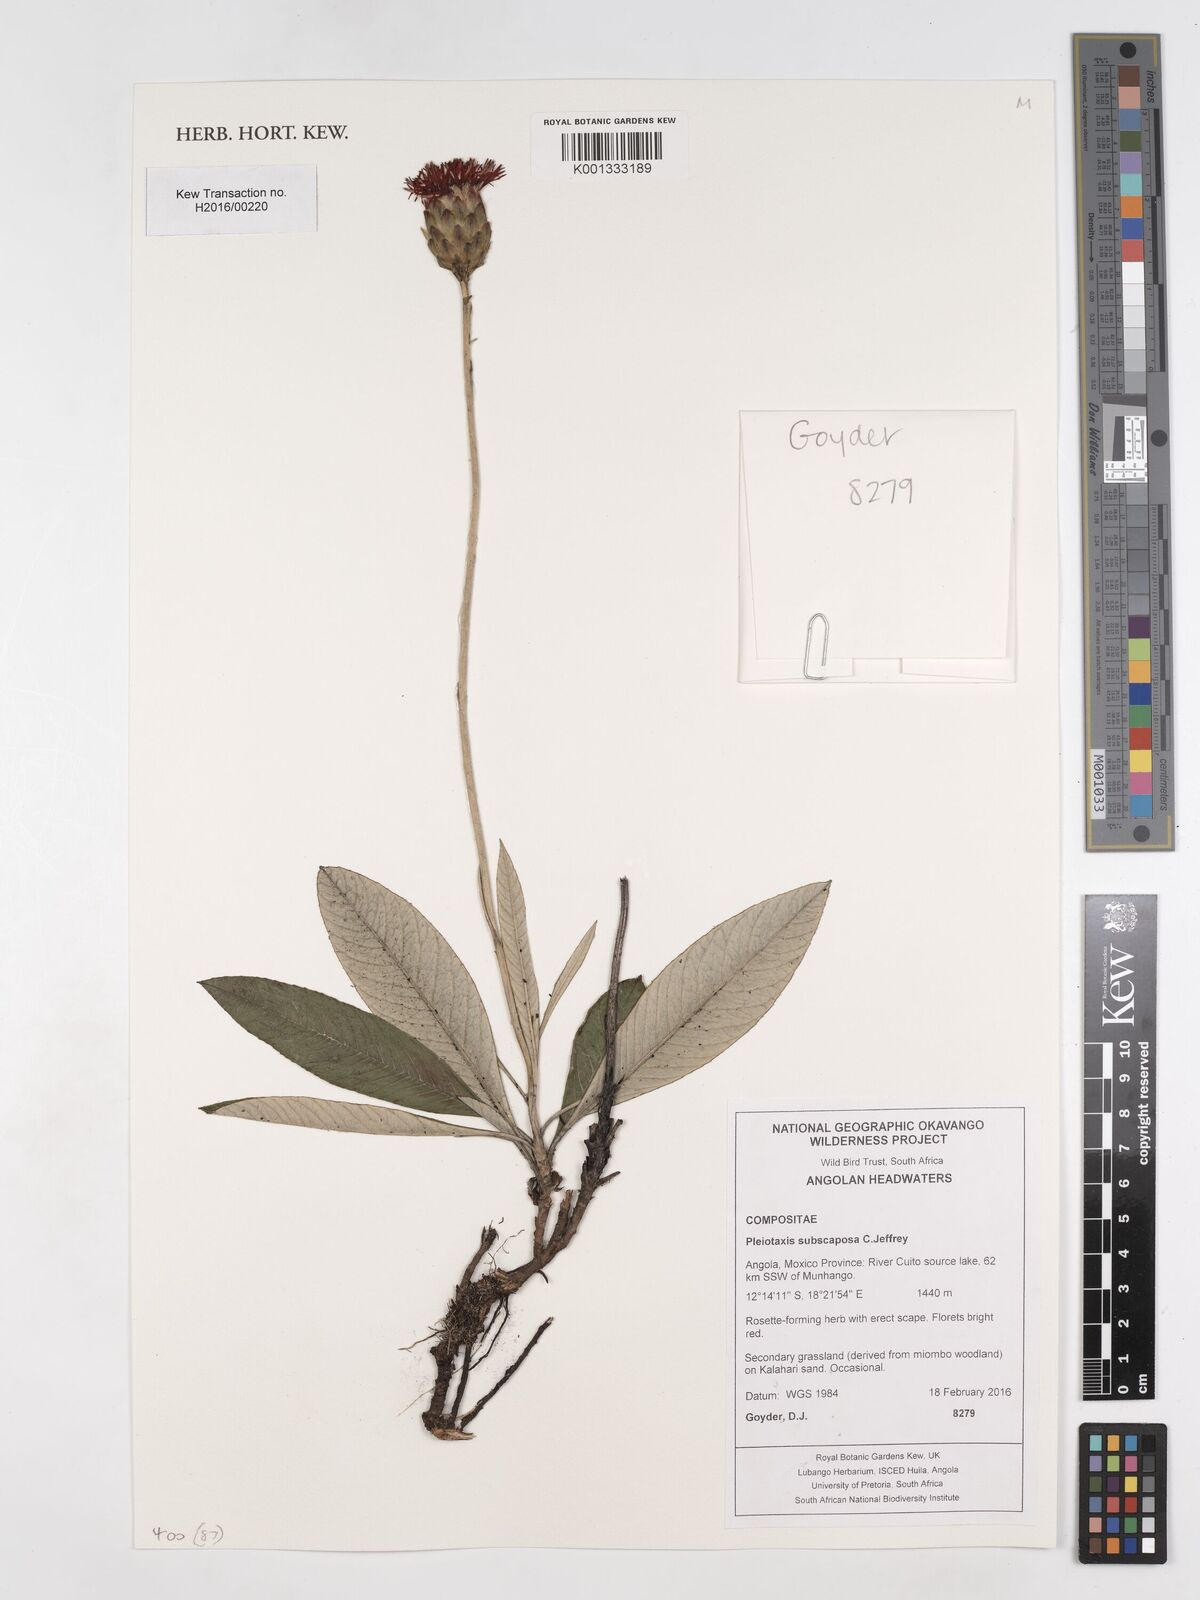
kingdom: Plantae
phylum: Tracheophyta
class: Magnoliopsida
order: Asterales
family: Asteraceae
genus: Pleiotaxis
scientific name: Pleiotaxis subscaposa
